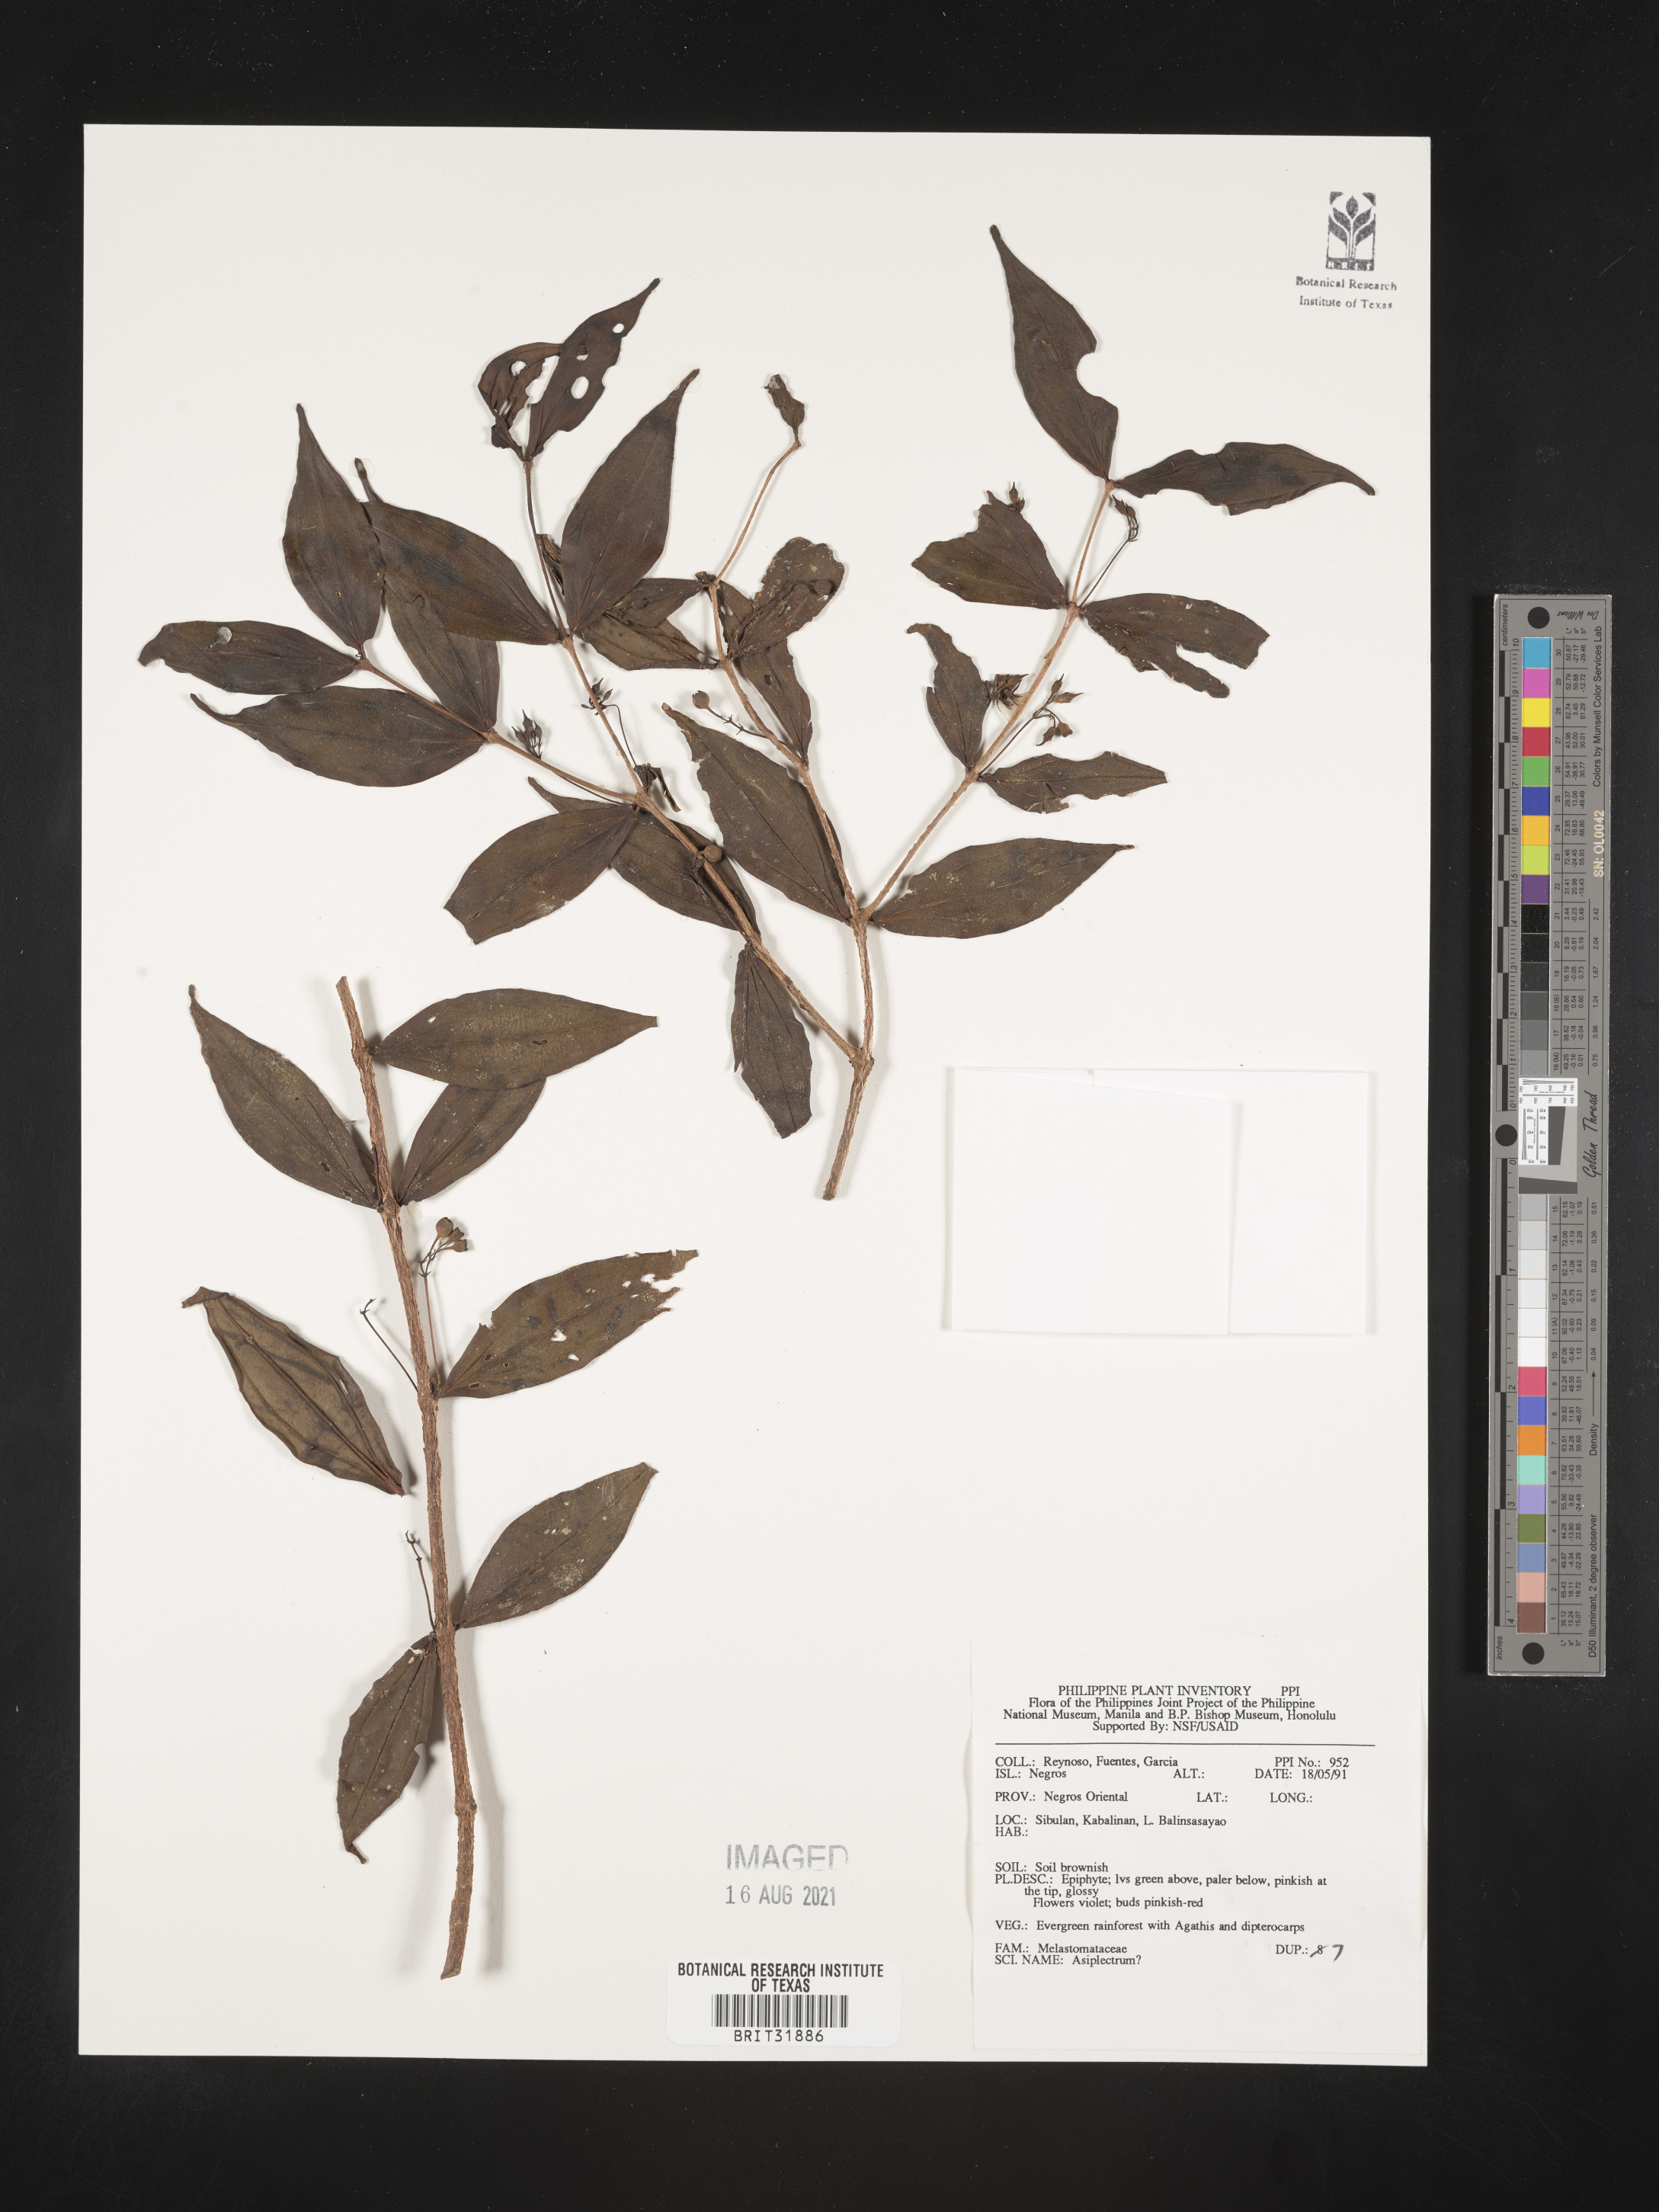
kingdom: Plantae
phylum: Tracheophyta
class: Magnoliopsida
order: Myrtales
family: Melastomataceae
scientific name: Melastomataceae
